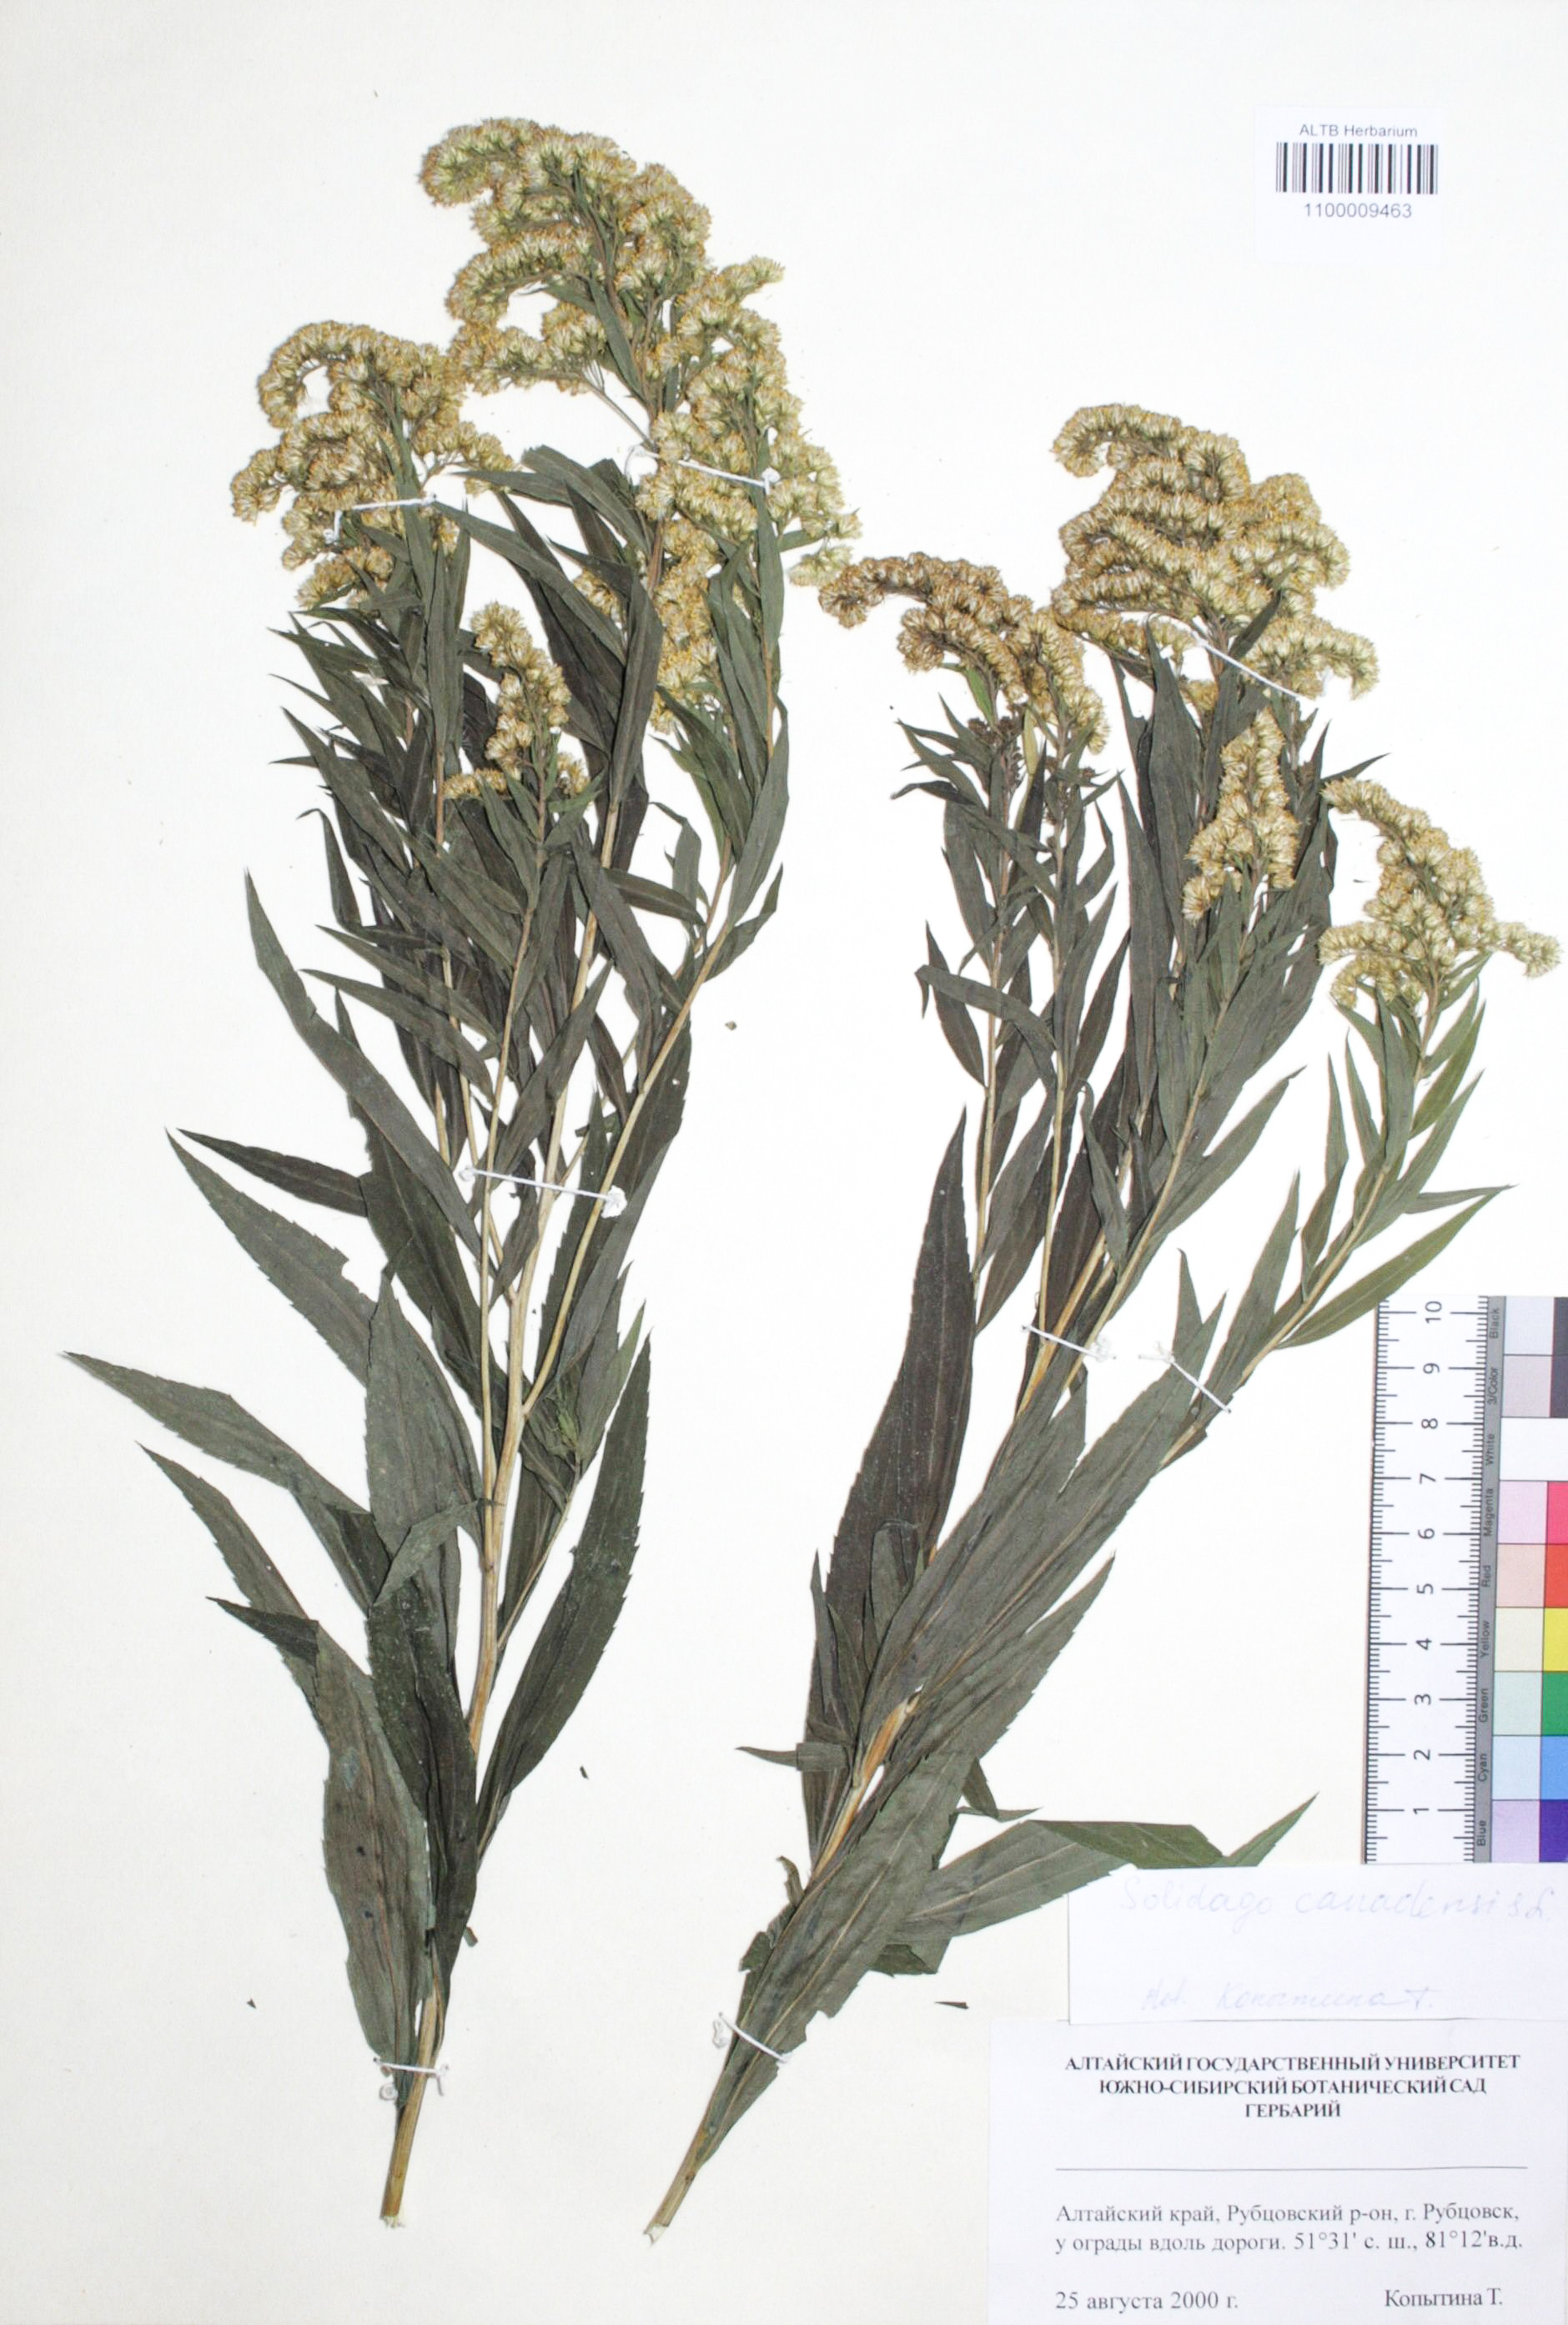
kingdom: Plantae
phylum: Tracheophyta
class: Magnoliopsida
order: Asterales
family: Asteraceae
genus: Solidago
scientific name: Solidago canadensis
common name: Canada goldenrod
